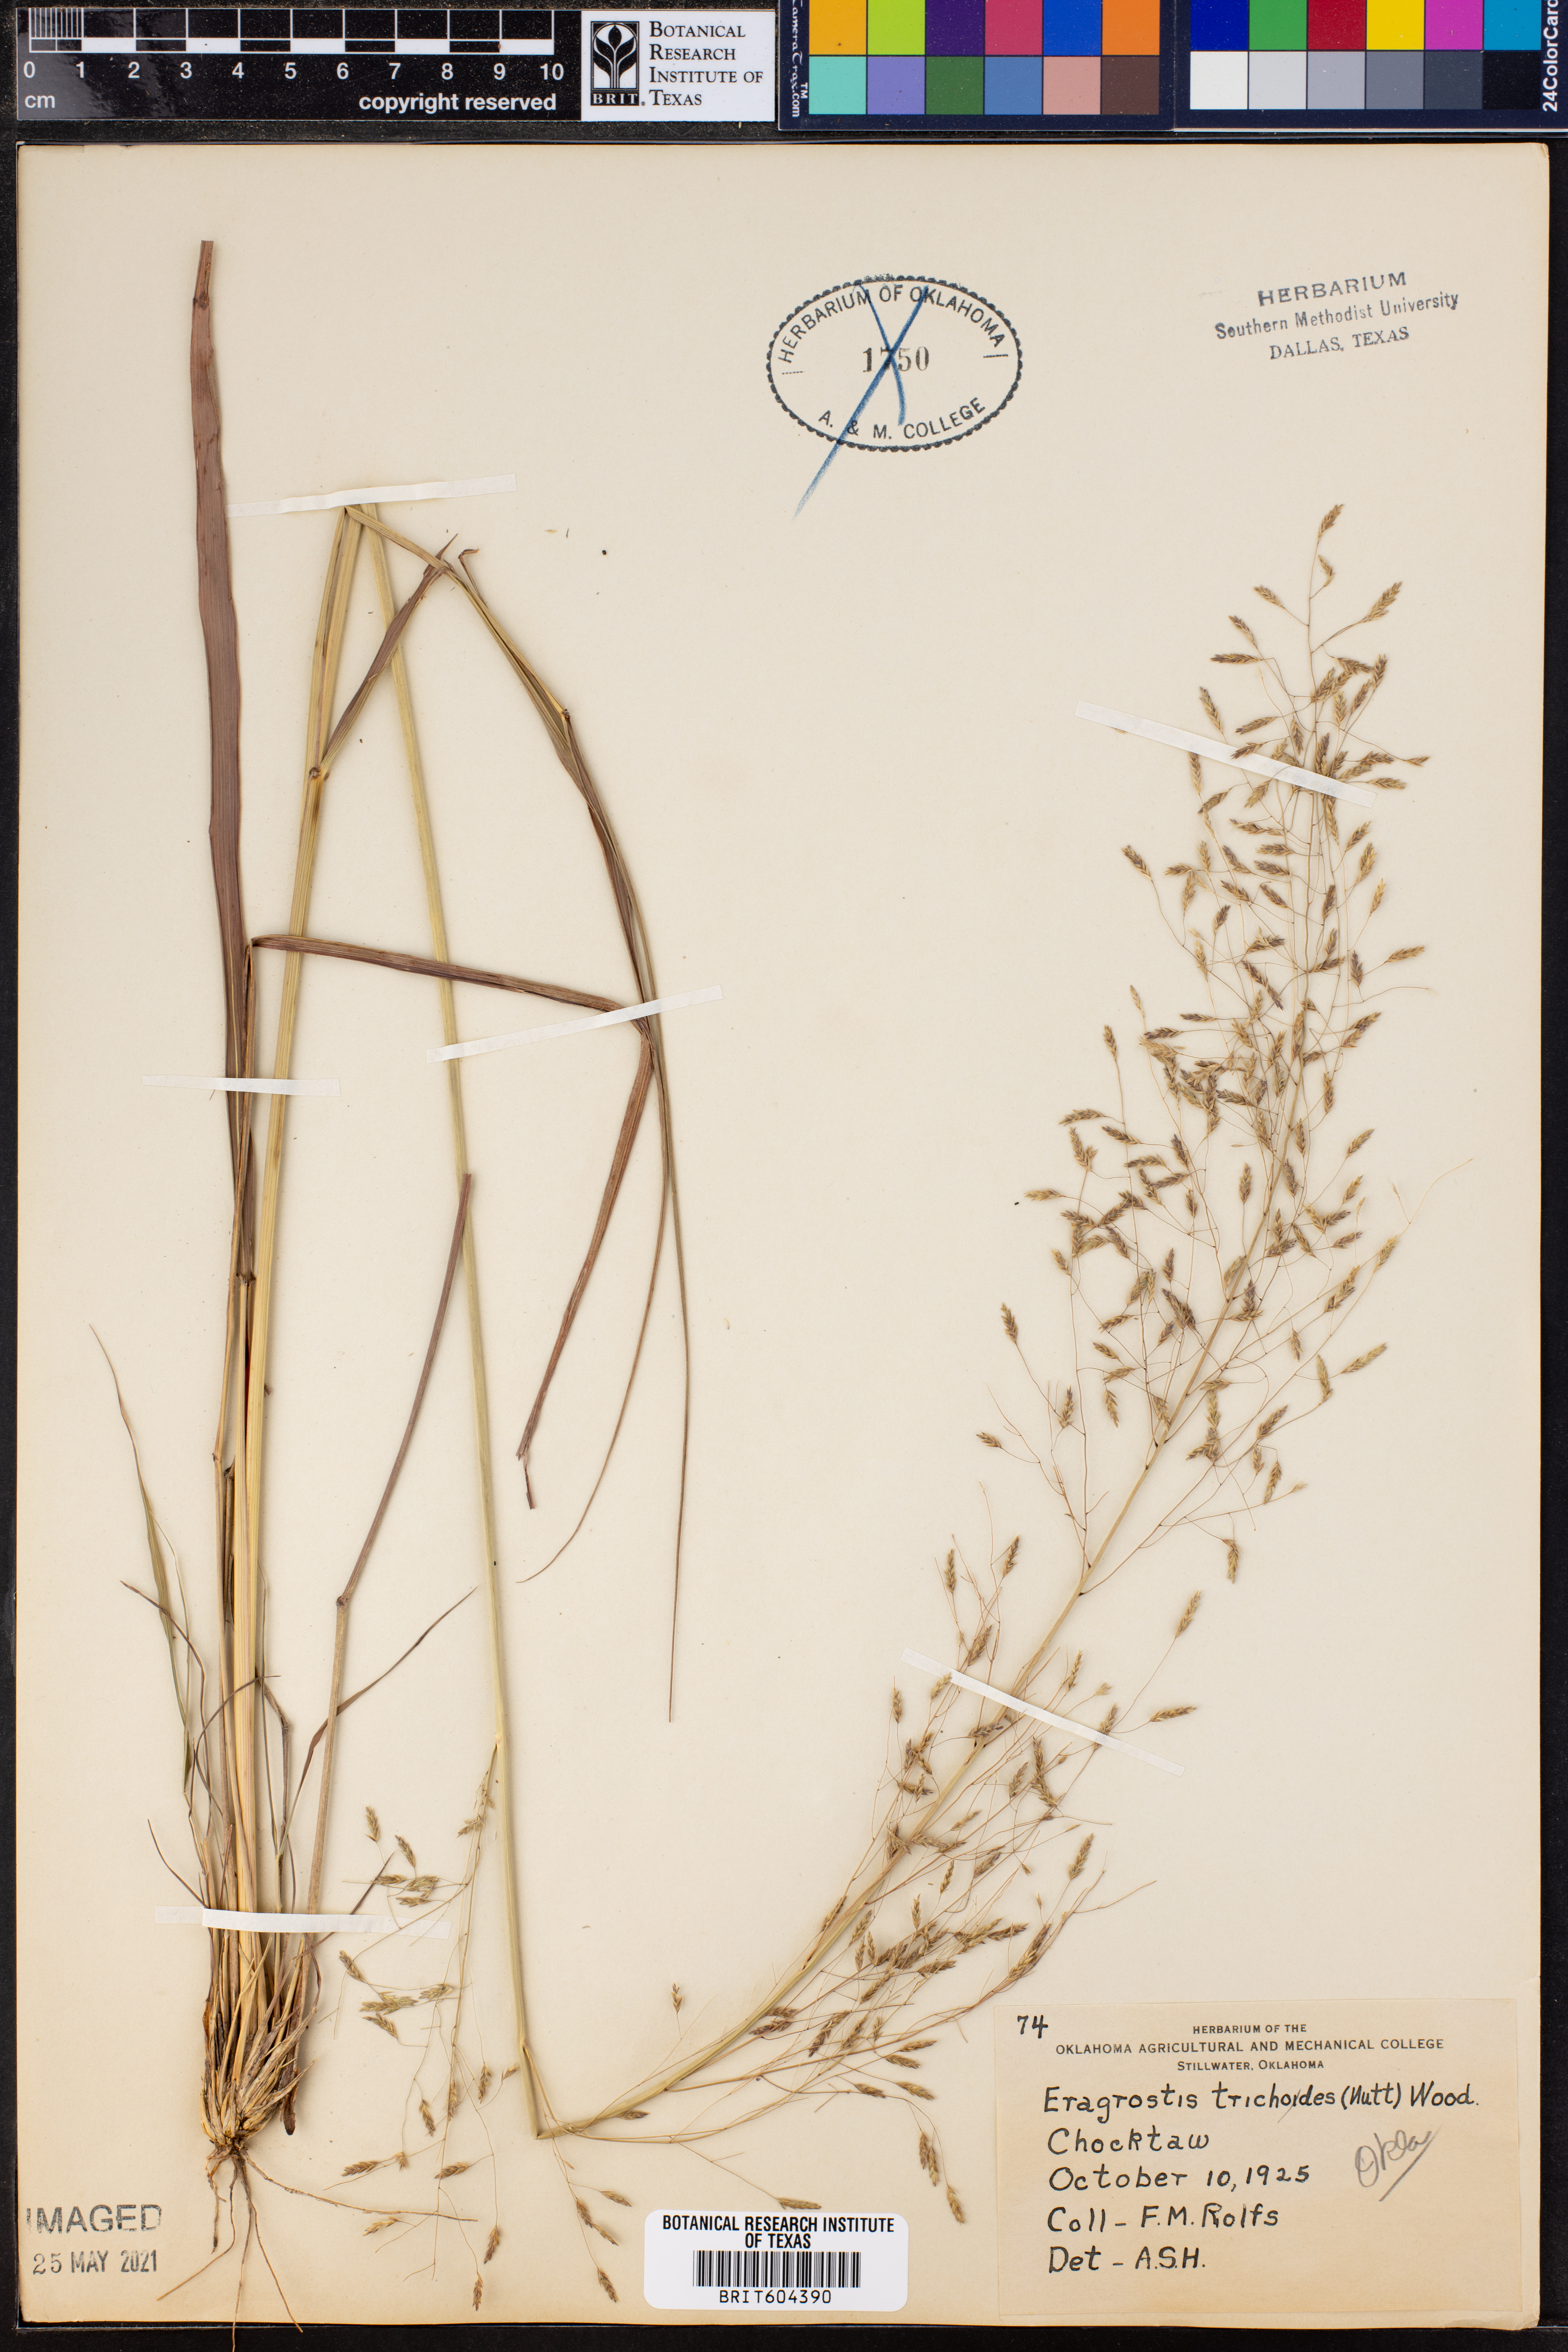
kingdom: Plantae
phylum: Tracheophyta
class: Liliopsida
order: Poales
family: Poaceae
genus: Eragrostis
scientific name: Eragrostis trichodes
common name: Sand love grass
